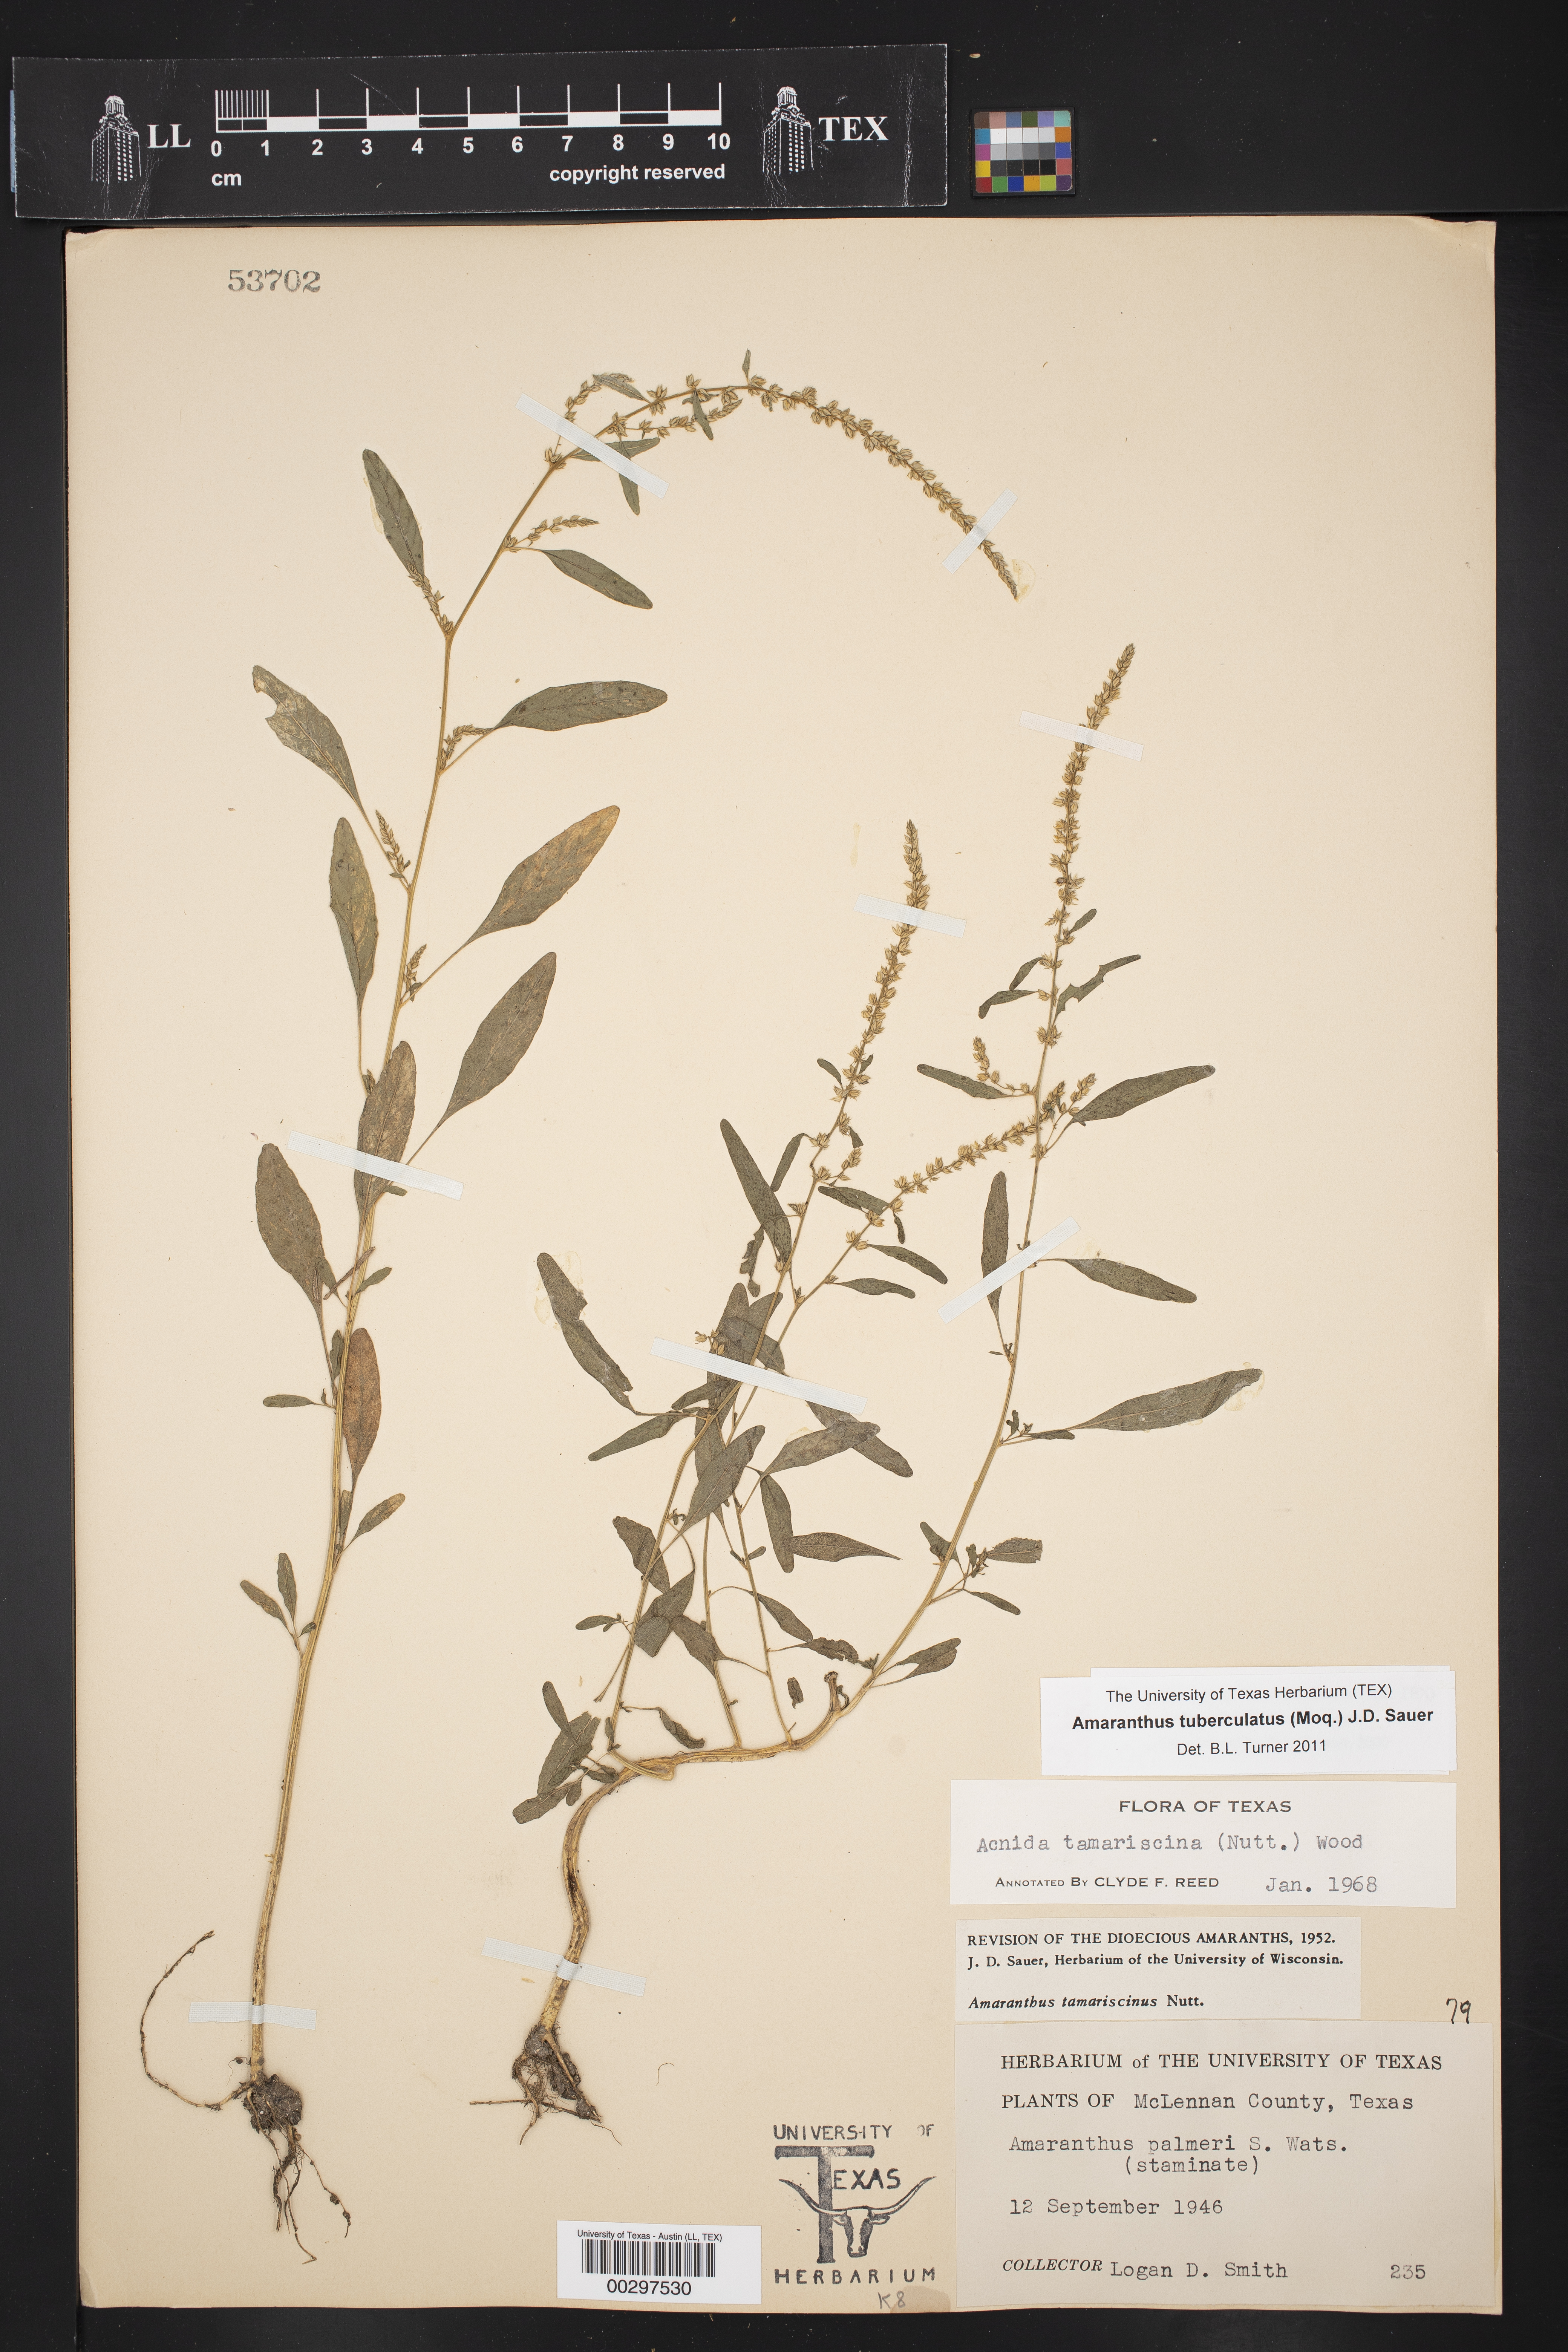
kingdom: Plantae
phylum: Tracheophyta
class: Magnoliopsida
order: Caryophyllales
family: Amaranthaceae
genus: Amaranthus
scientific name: Amaranthus tuberculatus
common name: Rough-fruit amaranth
